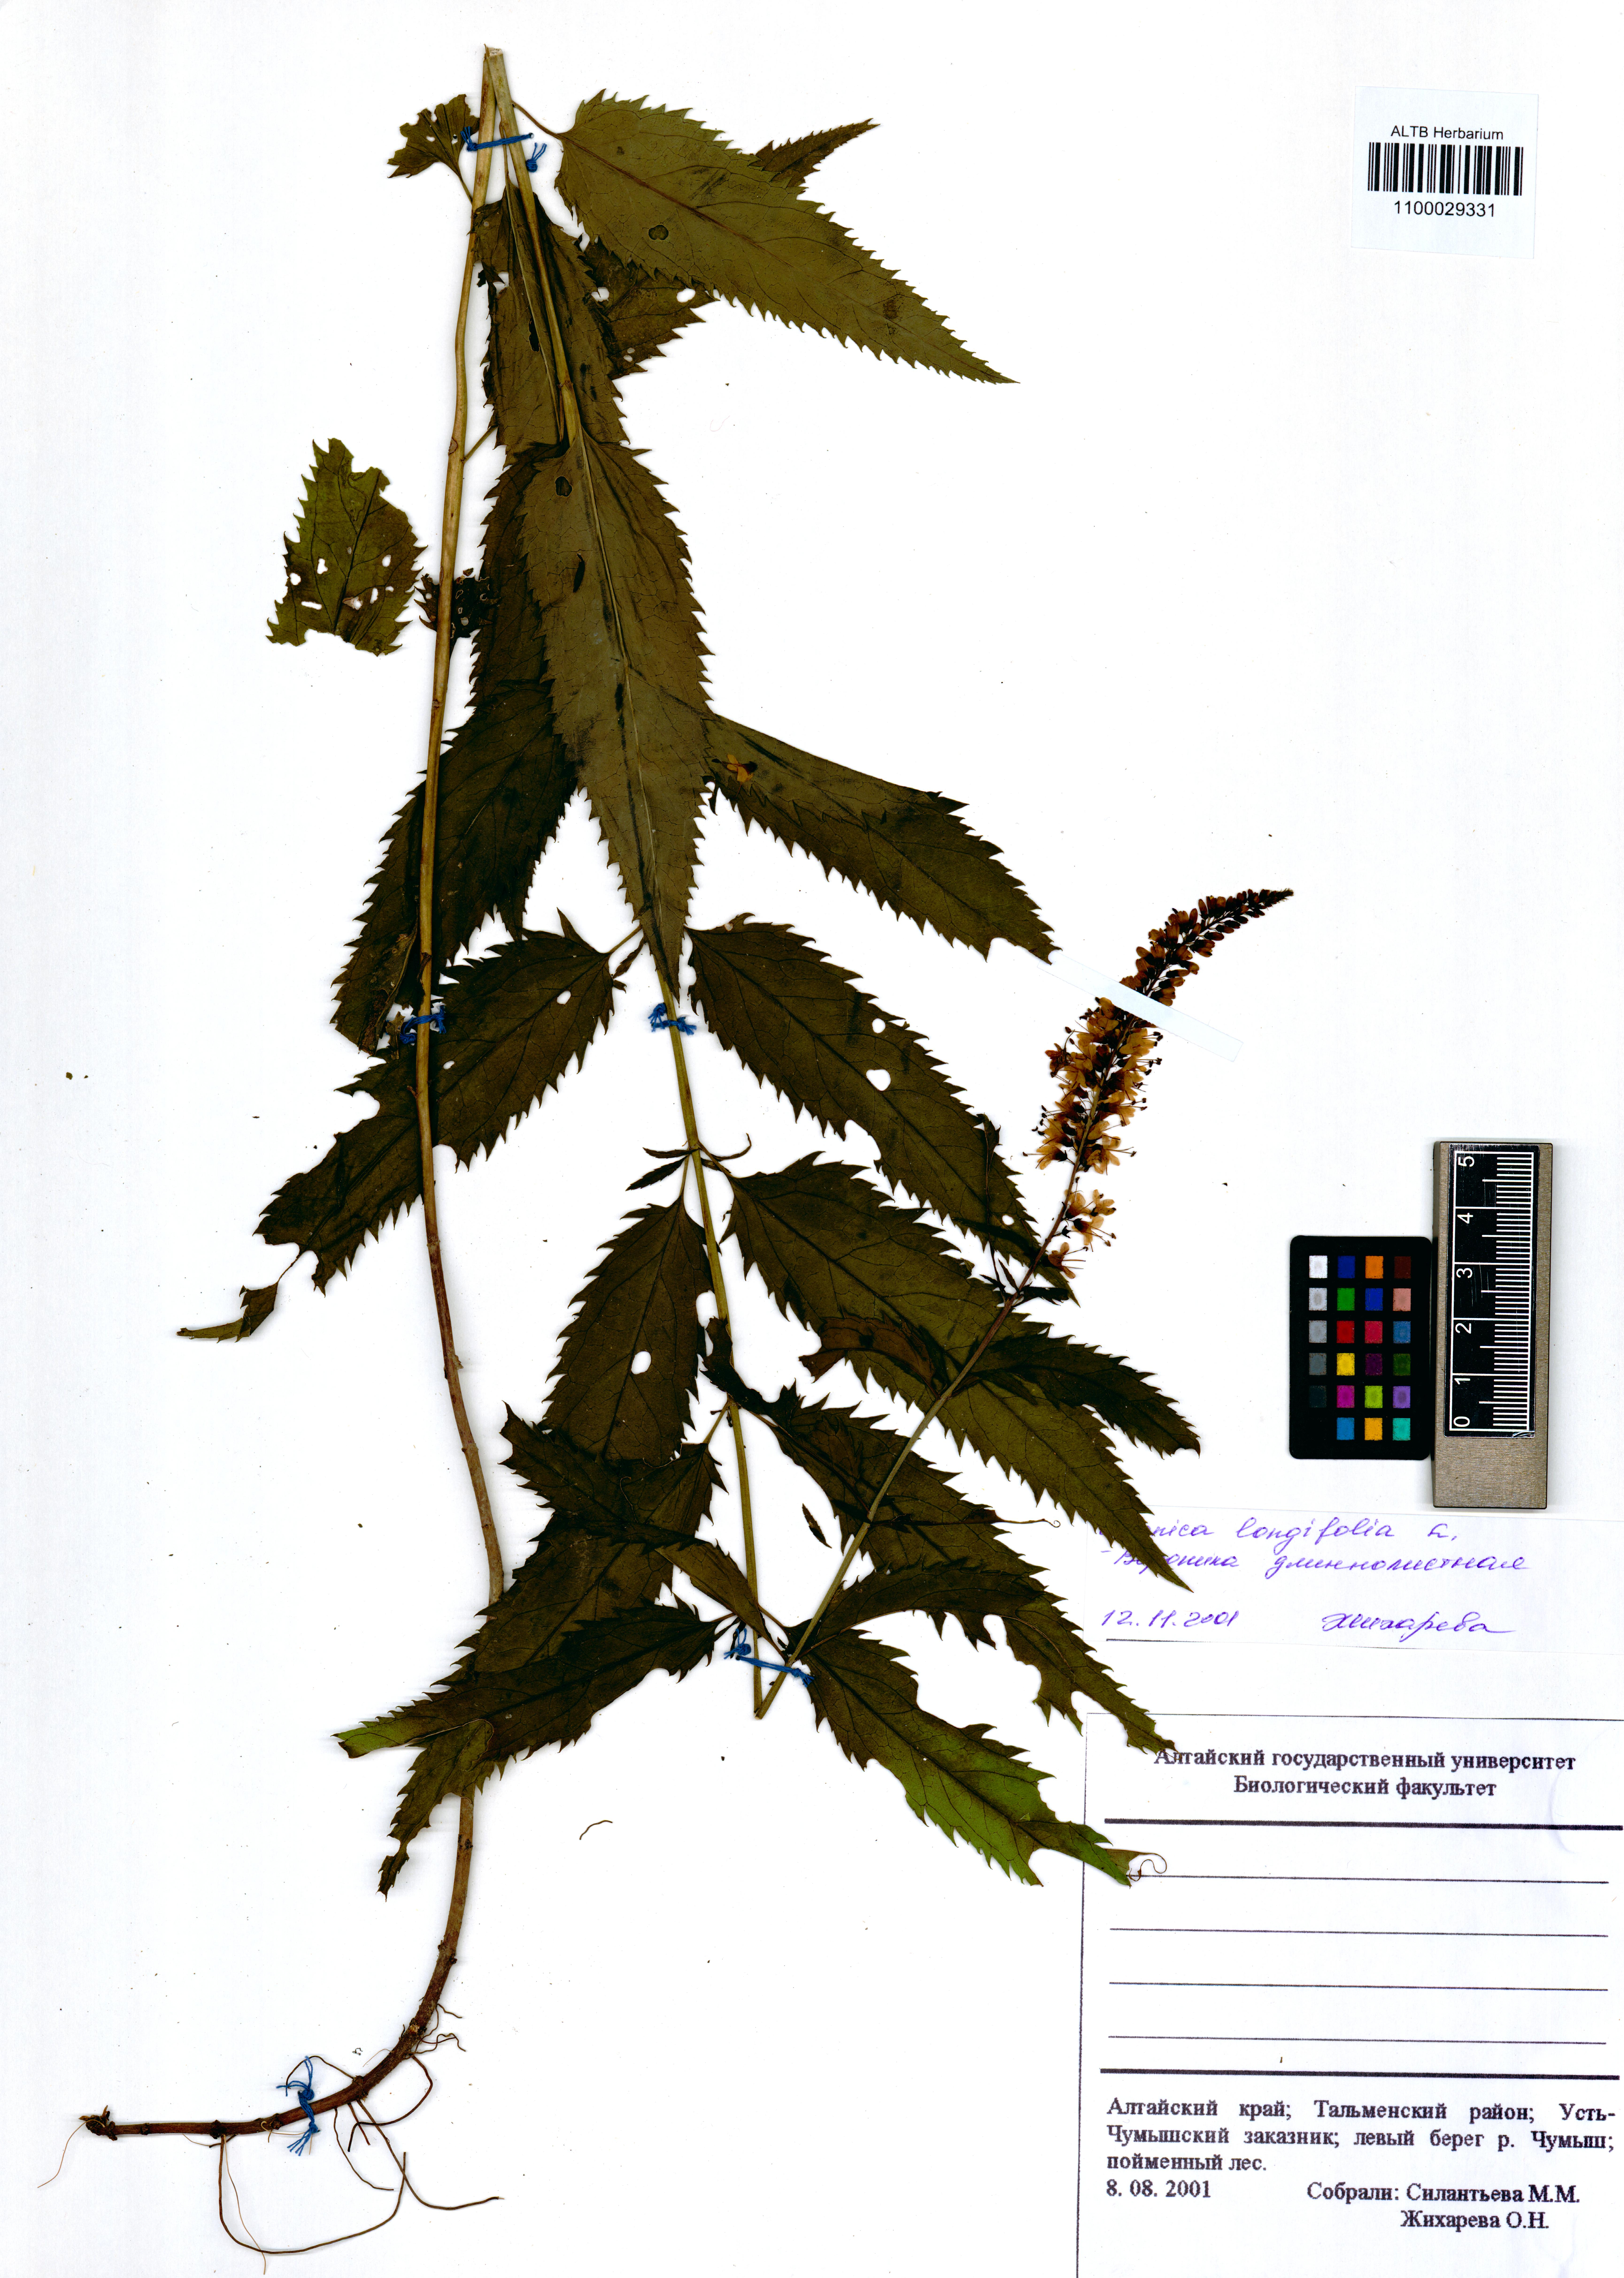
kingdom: Plantae
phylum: Tracheophyta
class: Magnoliopsida
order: Lamiales
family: Plantaginaceae
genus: Veronica
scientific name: Veronica longifolia
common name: Garden speedwell
